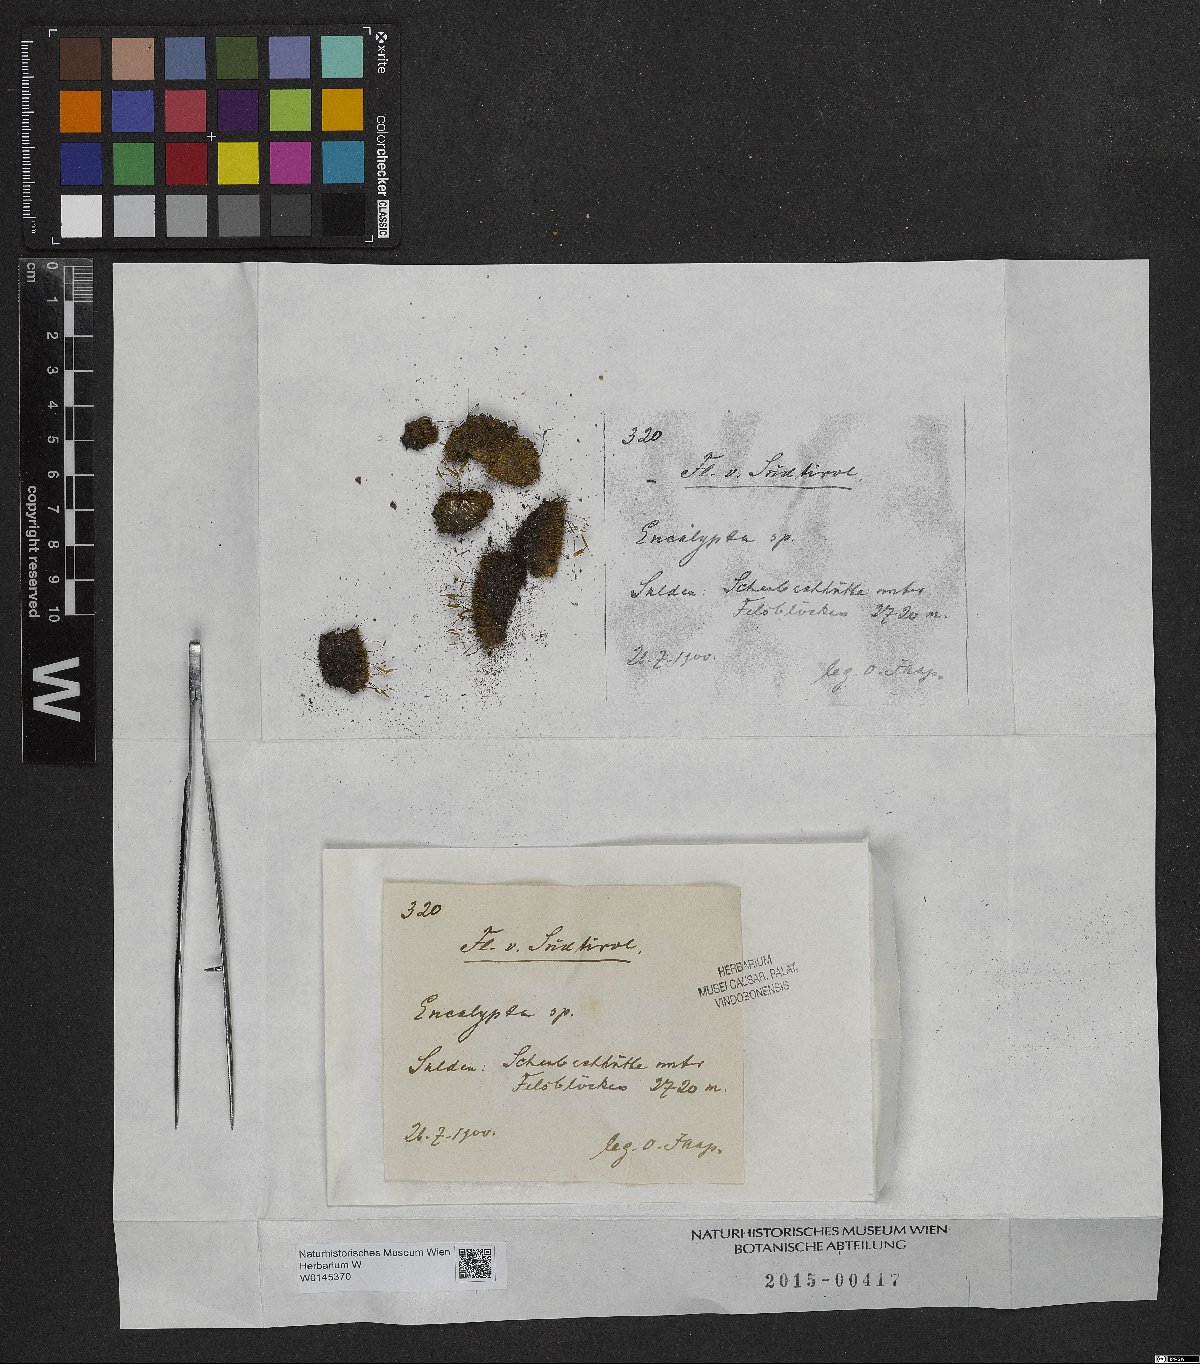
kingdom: Plantae
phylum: Bryophyta
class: Bryopsida
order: Encalyptales
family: Encalyptaceae
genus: Encalypta
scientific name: Encalypta
